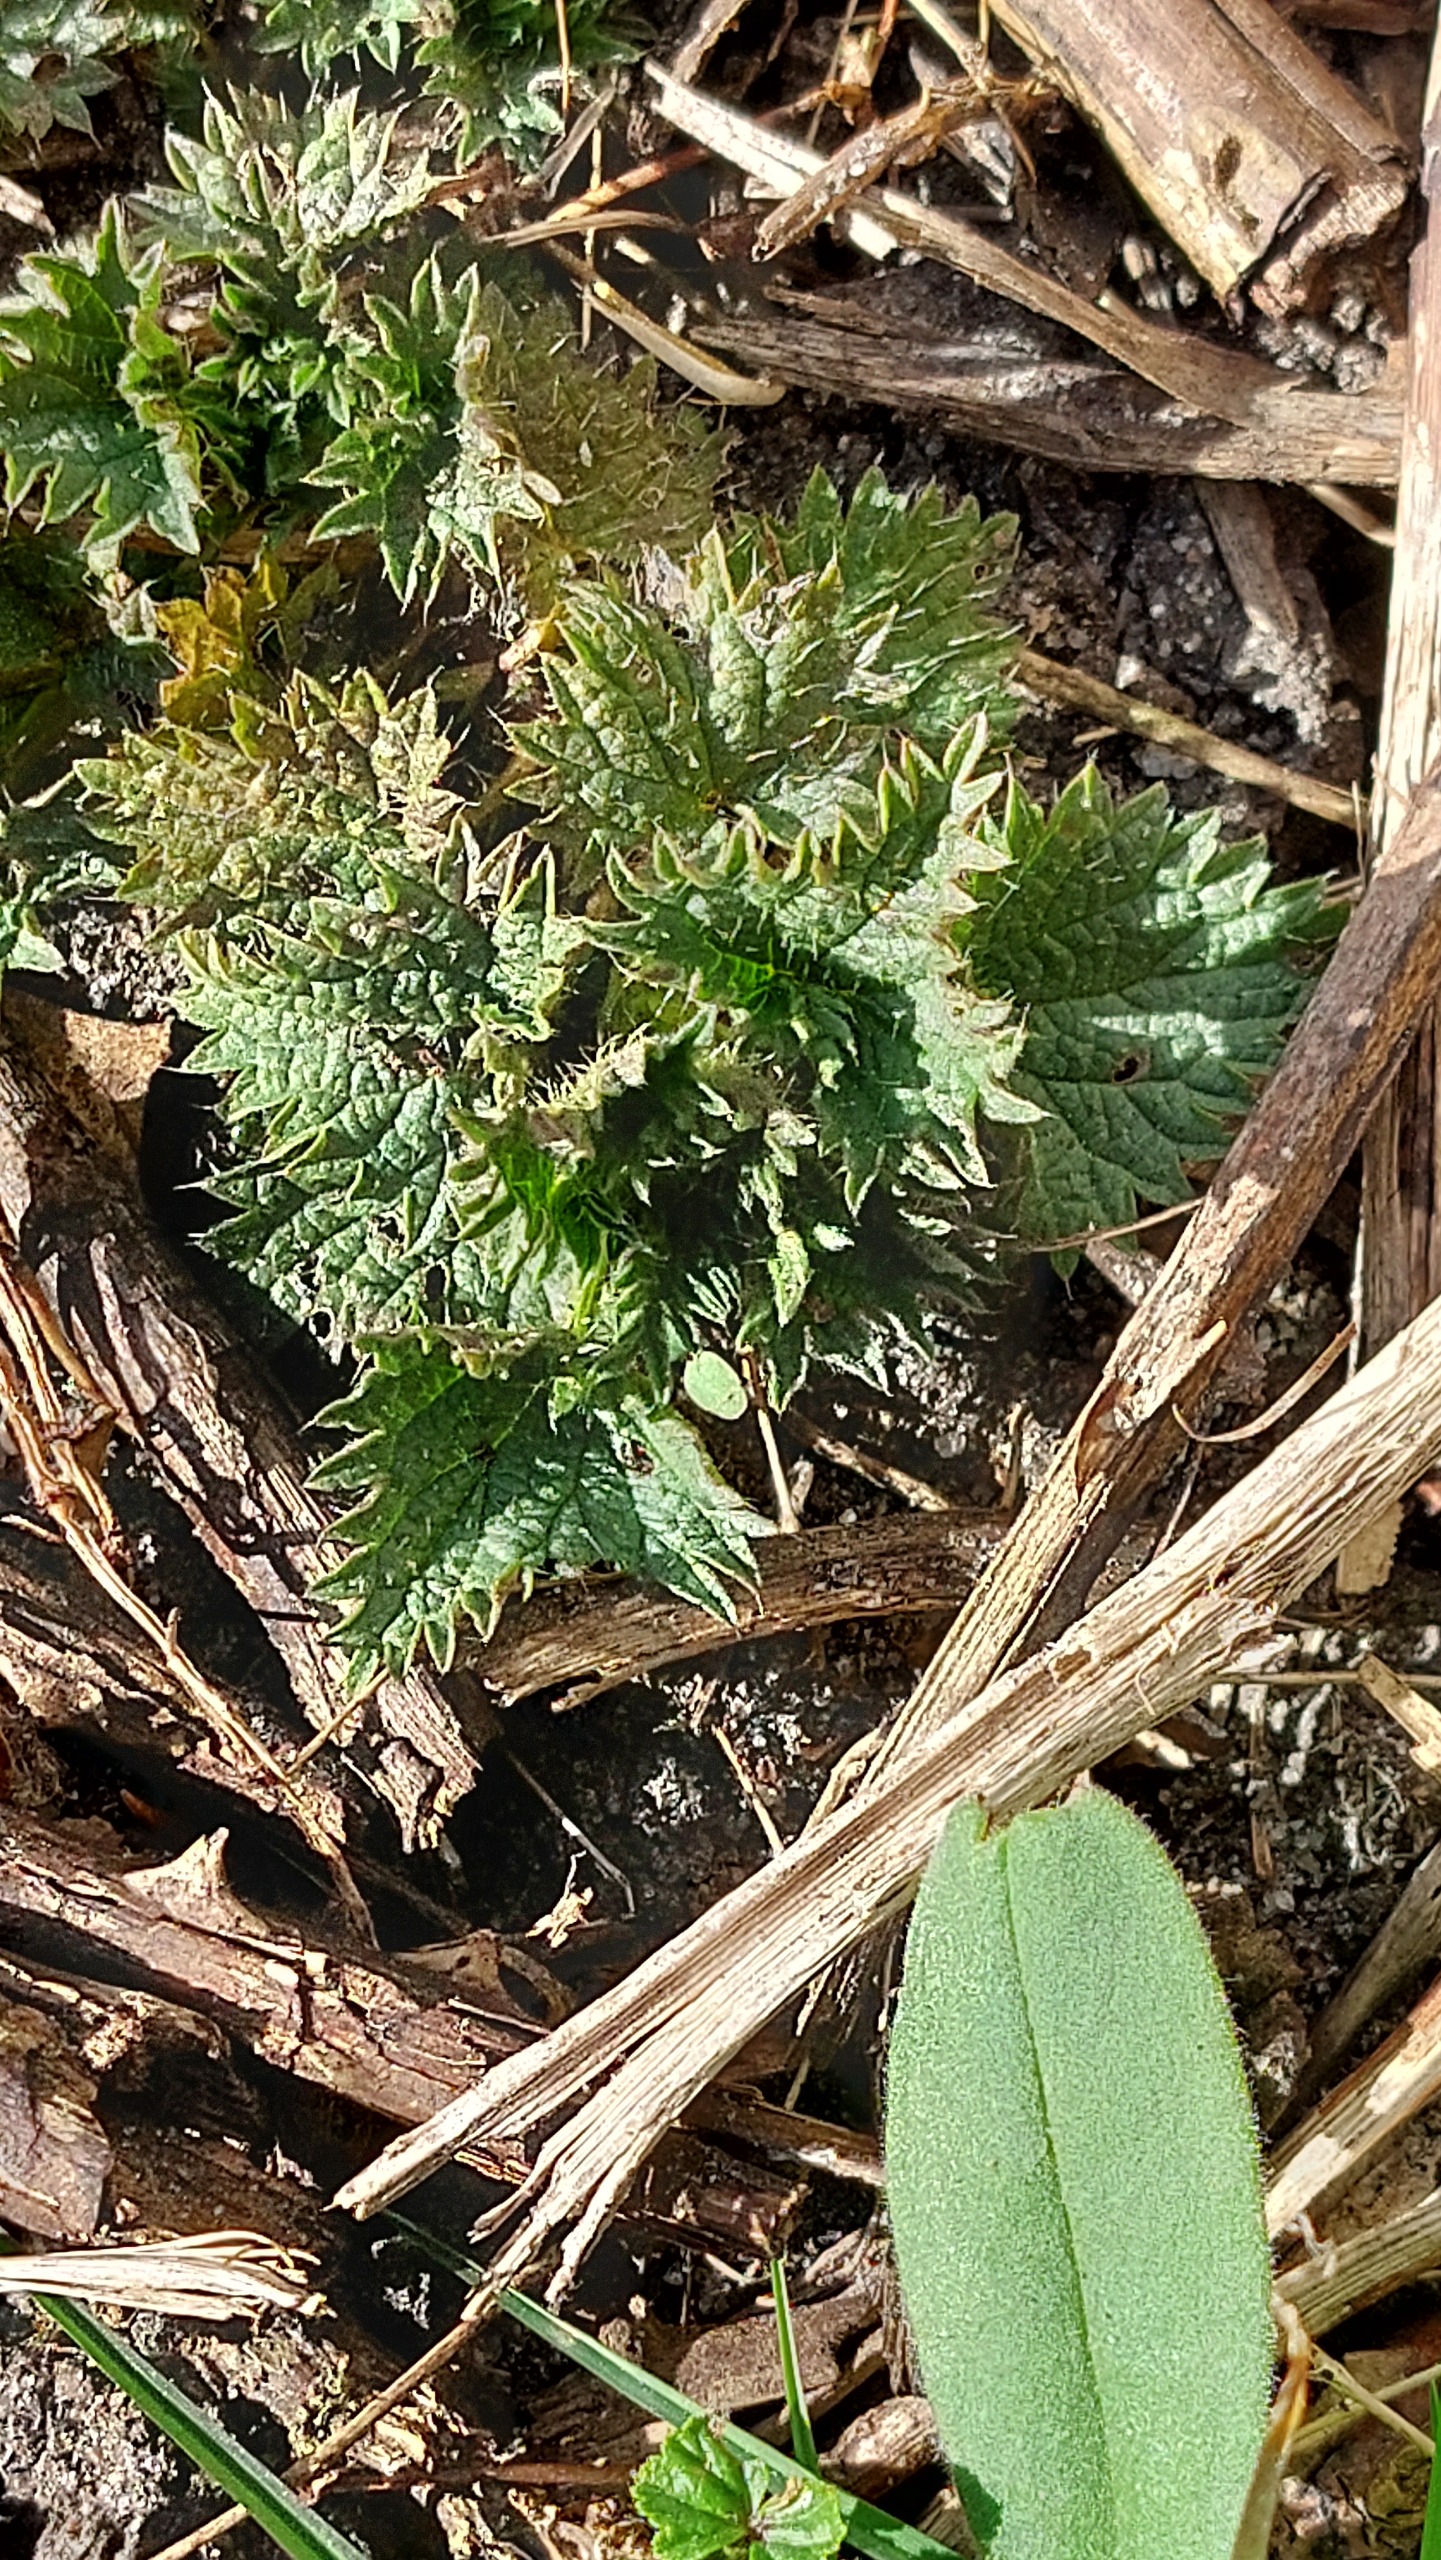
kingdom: Plantae
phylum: Tracheophyta
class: Magnoliopsida
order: Rosales
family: Urticaceae
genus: Urtica
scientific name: Urtica dioica
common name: Stor nælde
